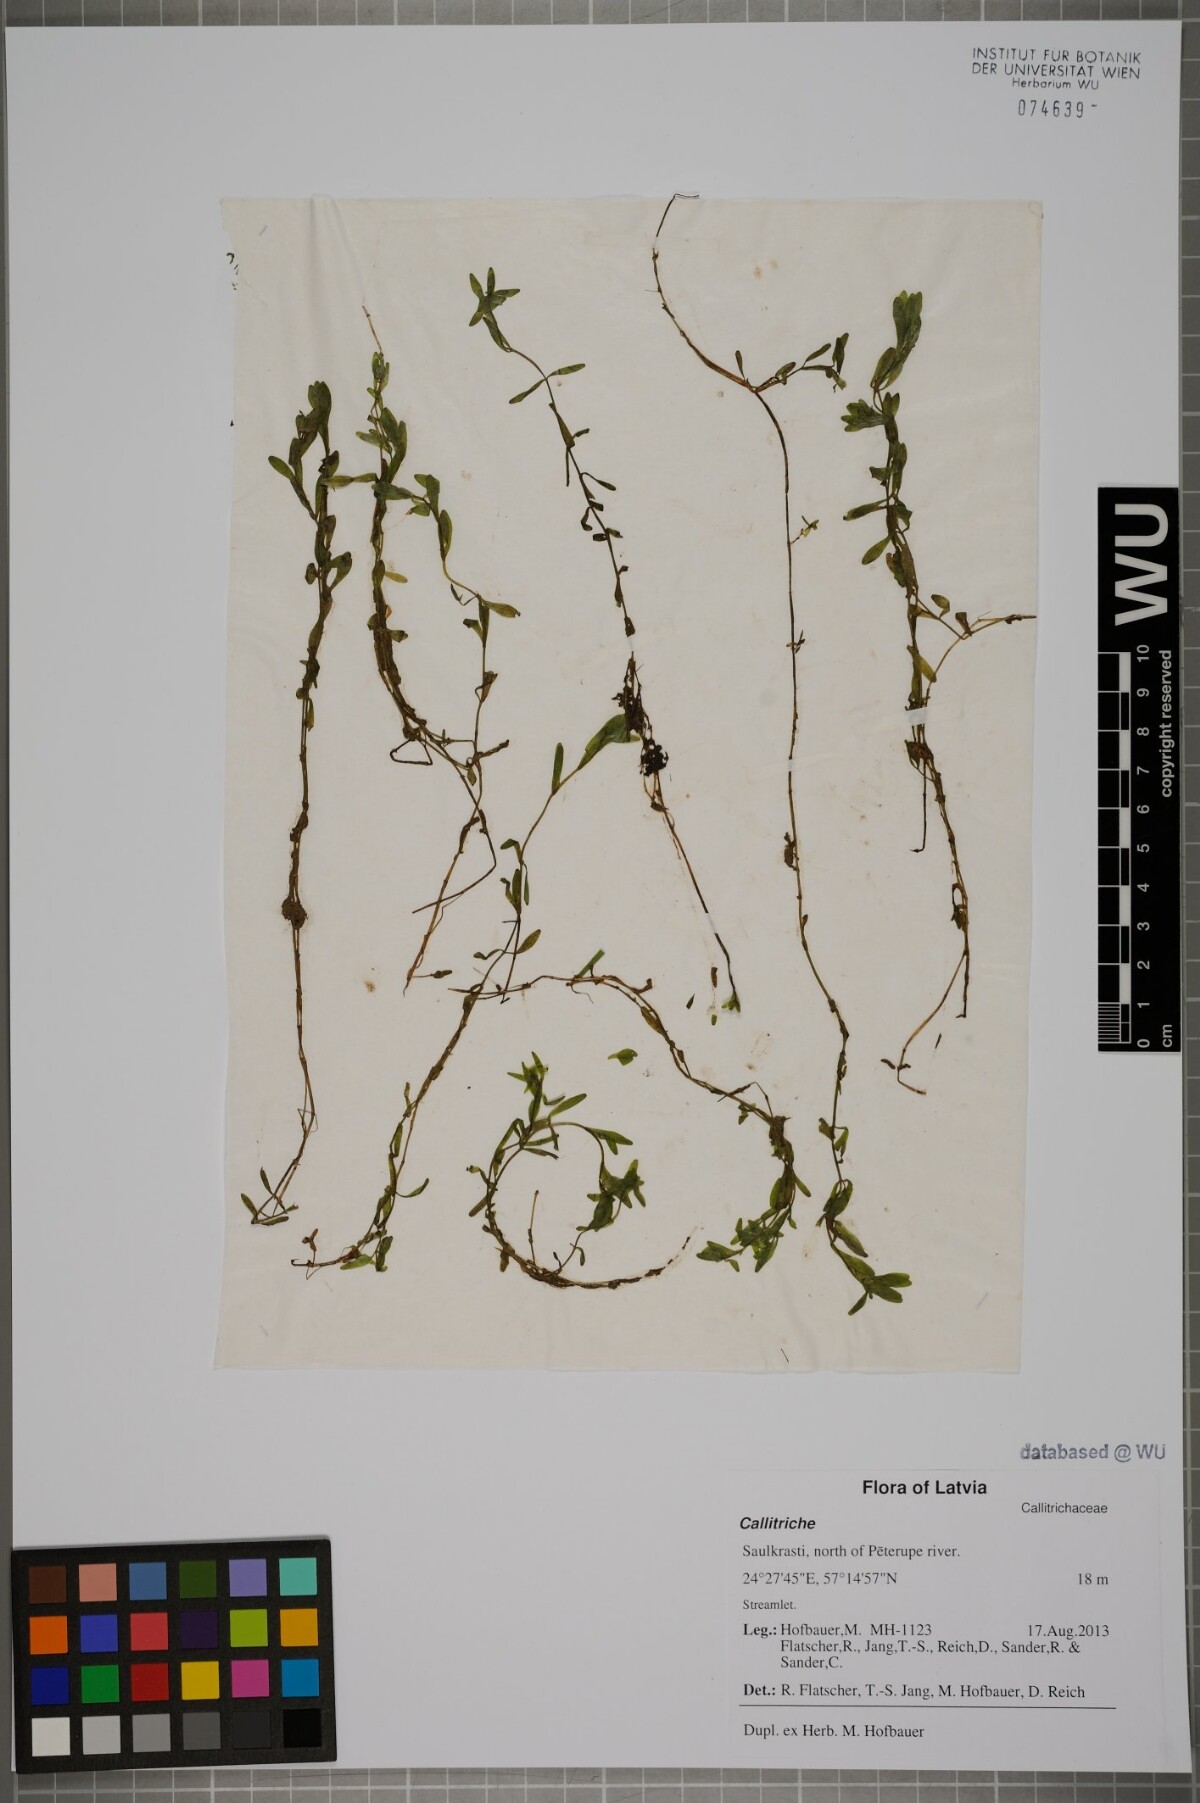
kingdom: Plantae
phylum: Tracheophyta
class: Magnoliopsida
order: Lamiales
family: Plantaginaceae
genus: Callitriche
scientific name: Callitriche
